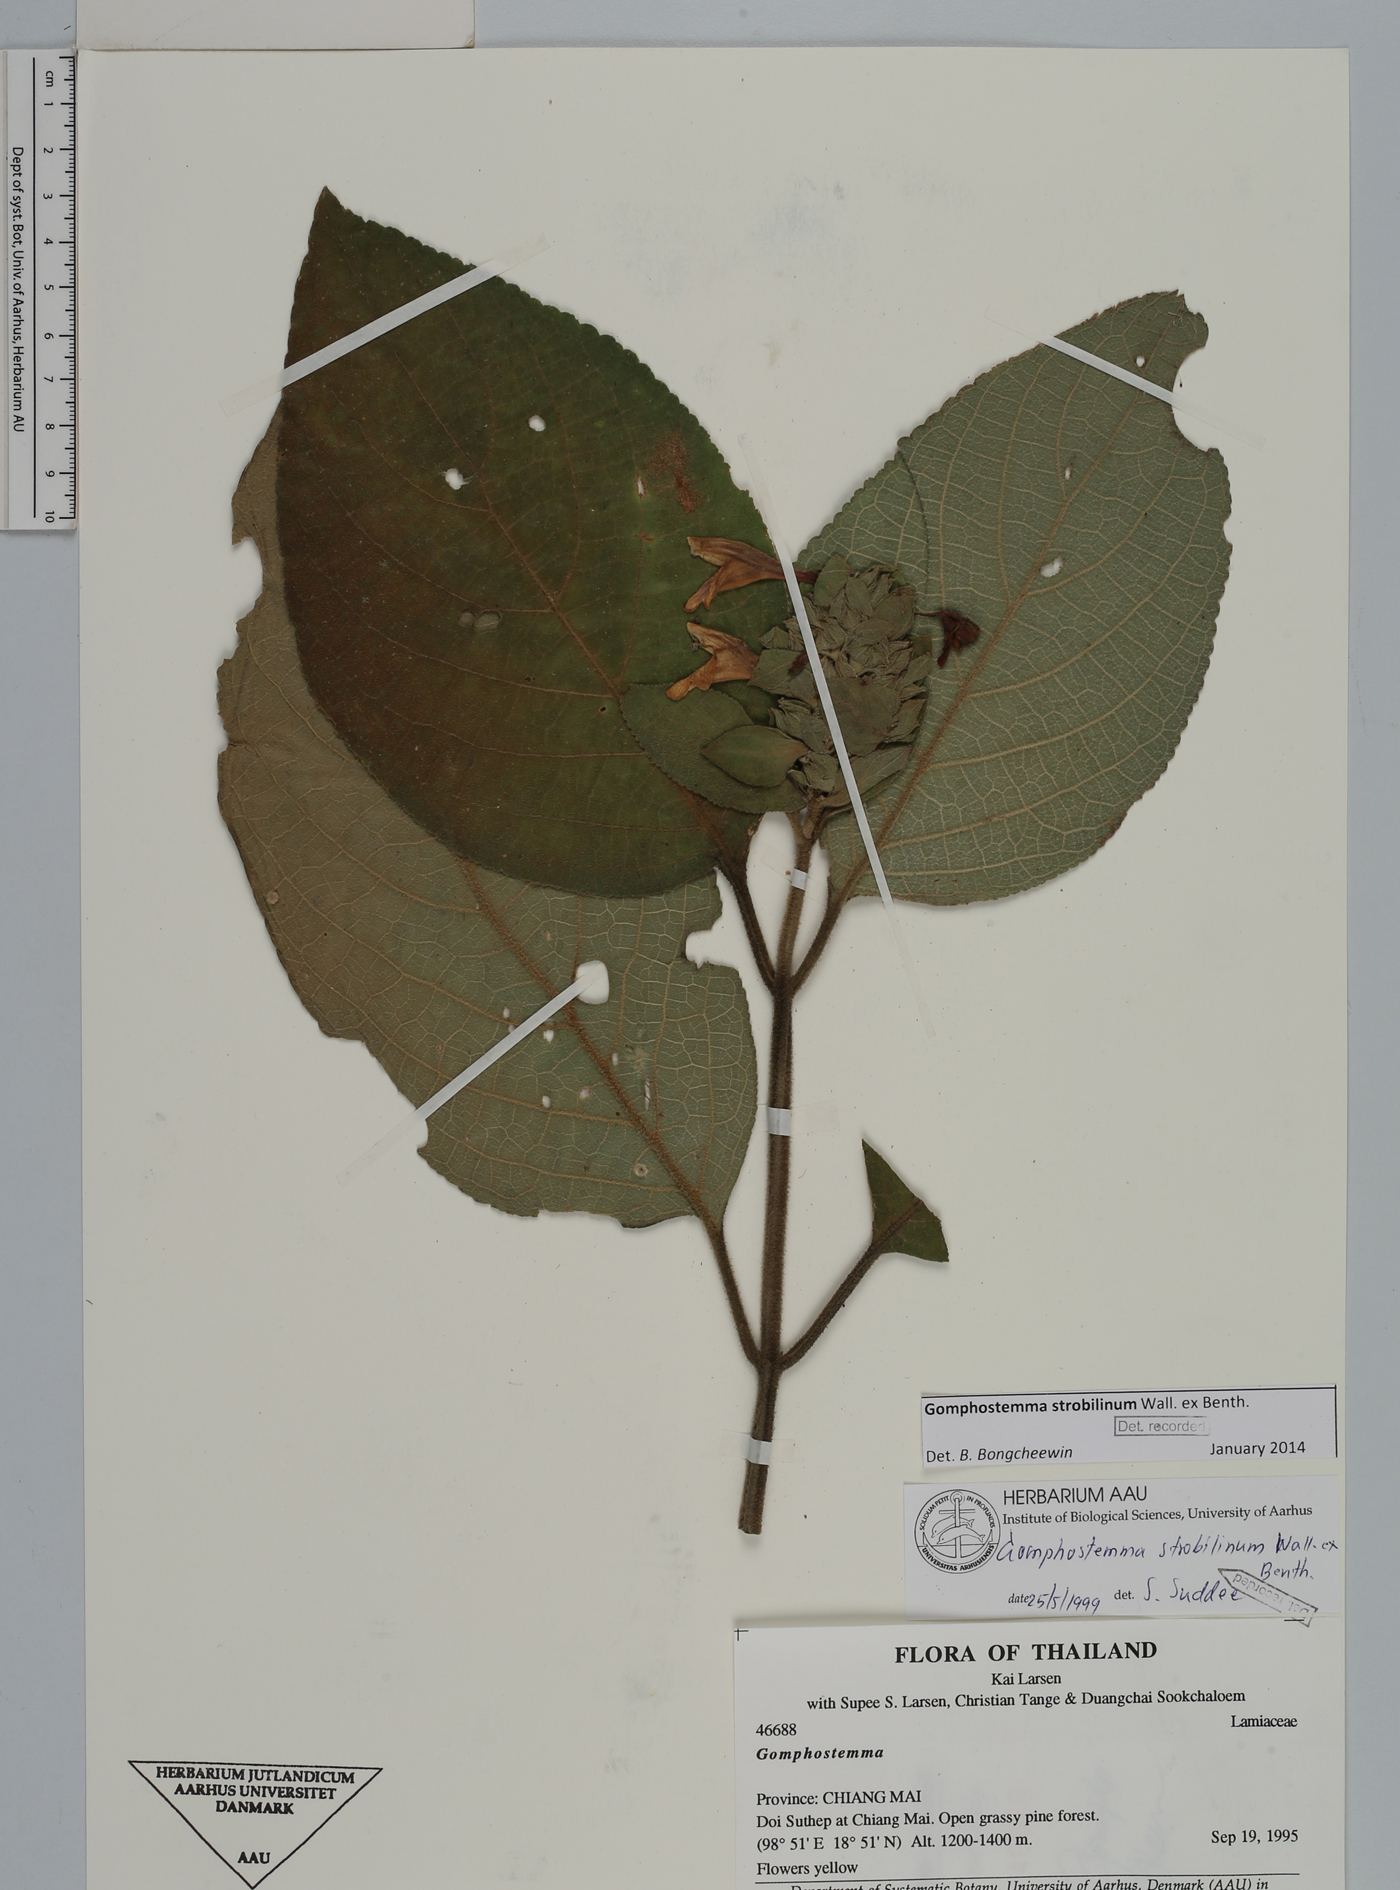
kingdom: Plantae
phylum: Tracheophyta
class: Magnoliopsida
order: Lamiales
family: Lamiaceae
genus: Gomphostemma
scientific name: Gomphostemma strobilinum
